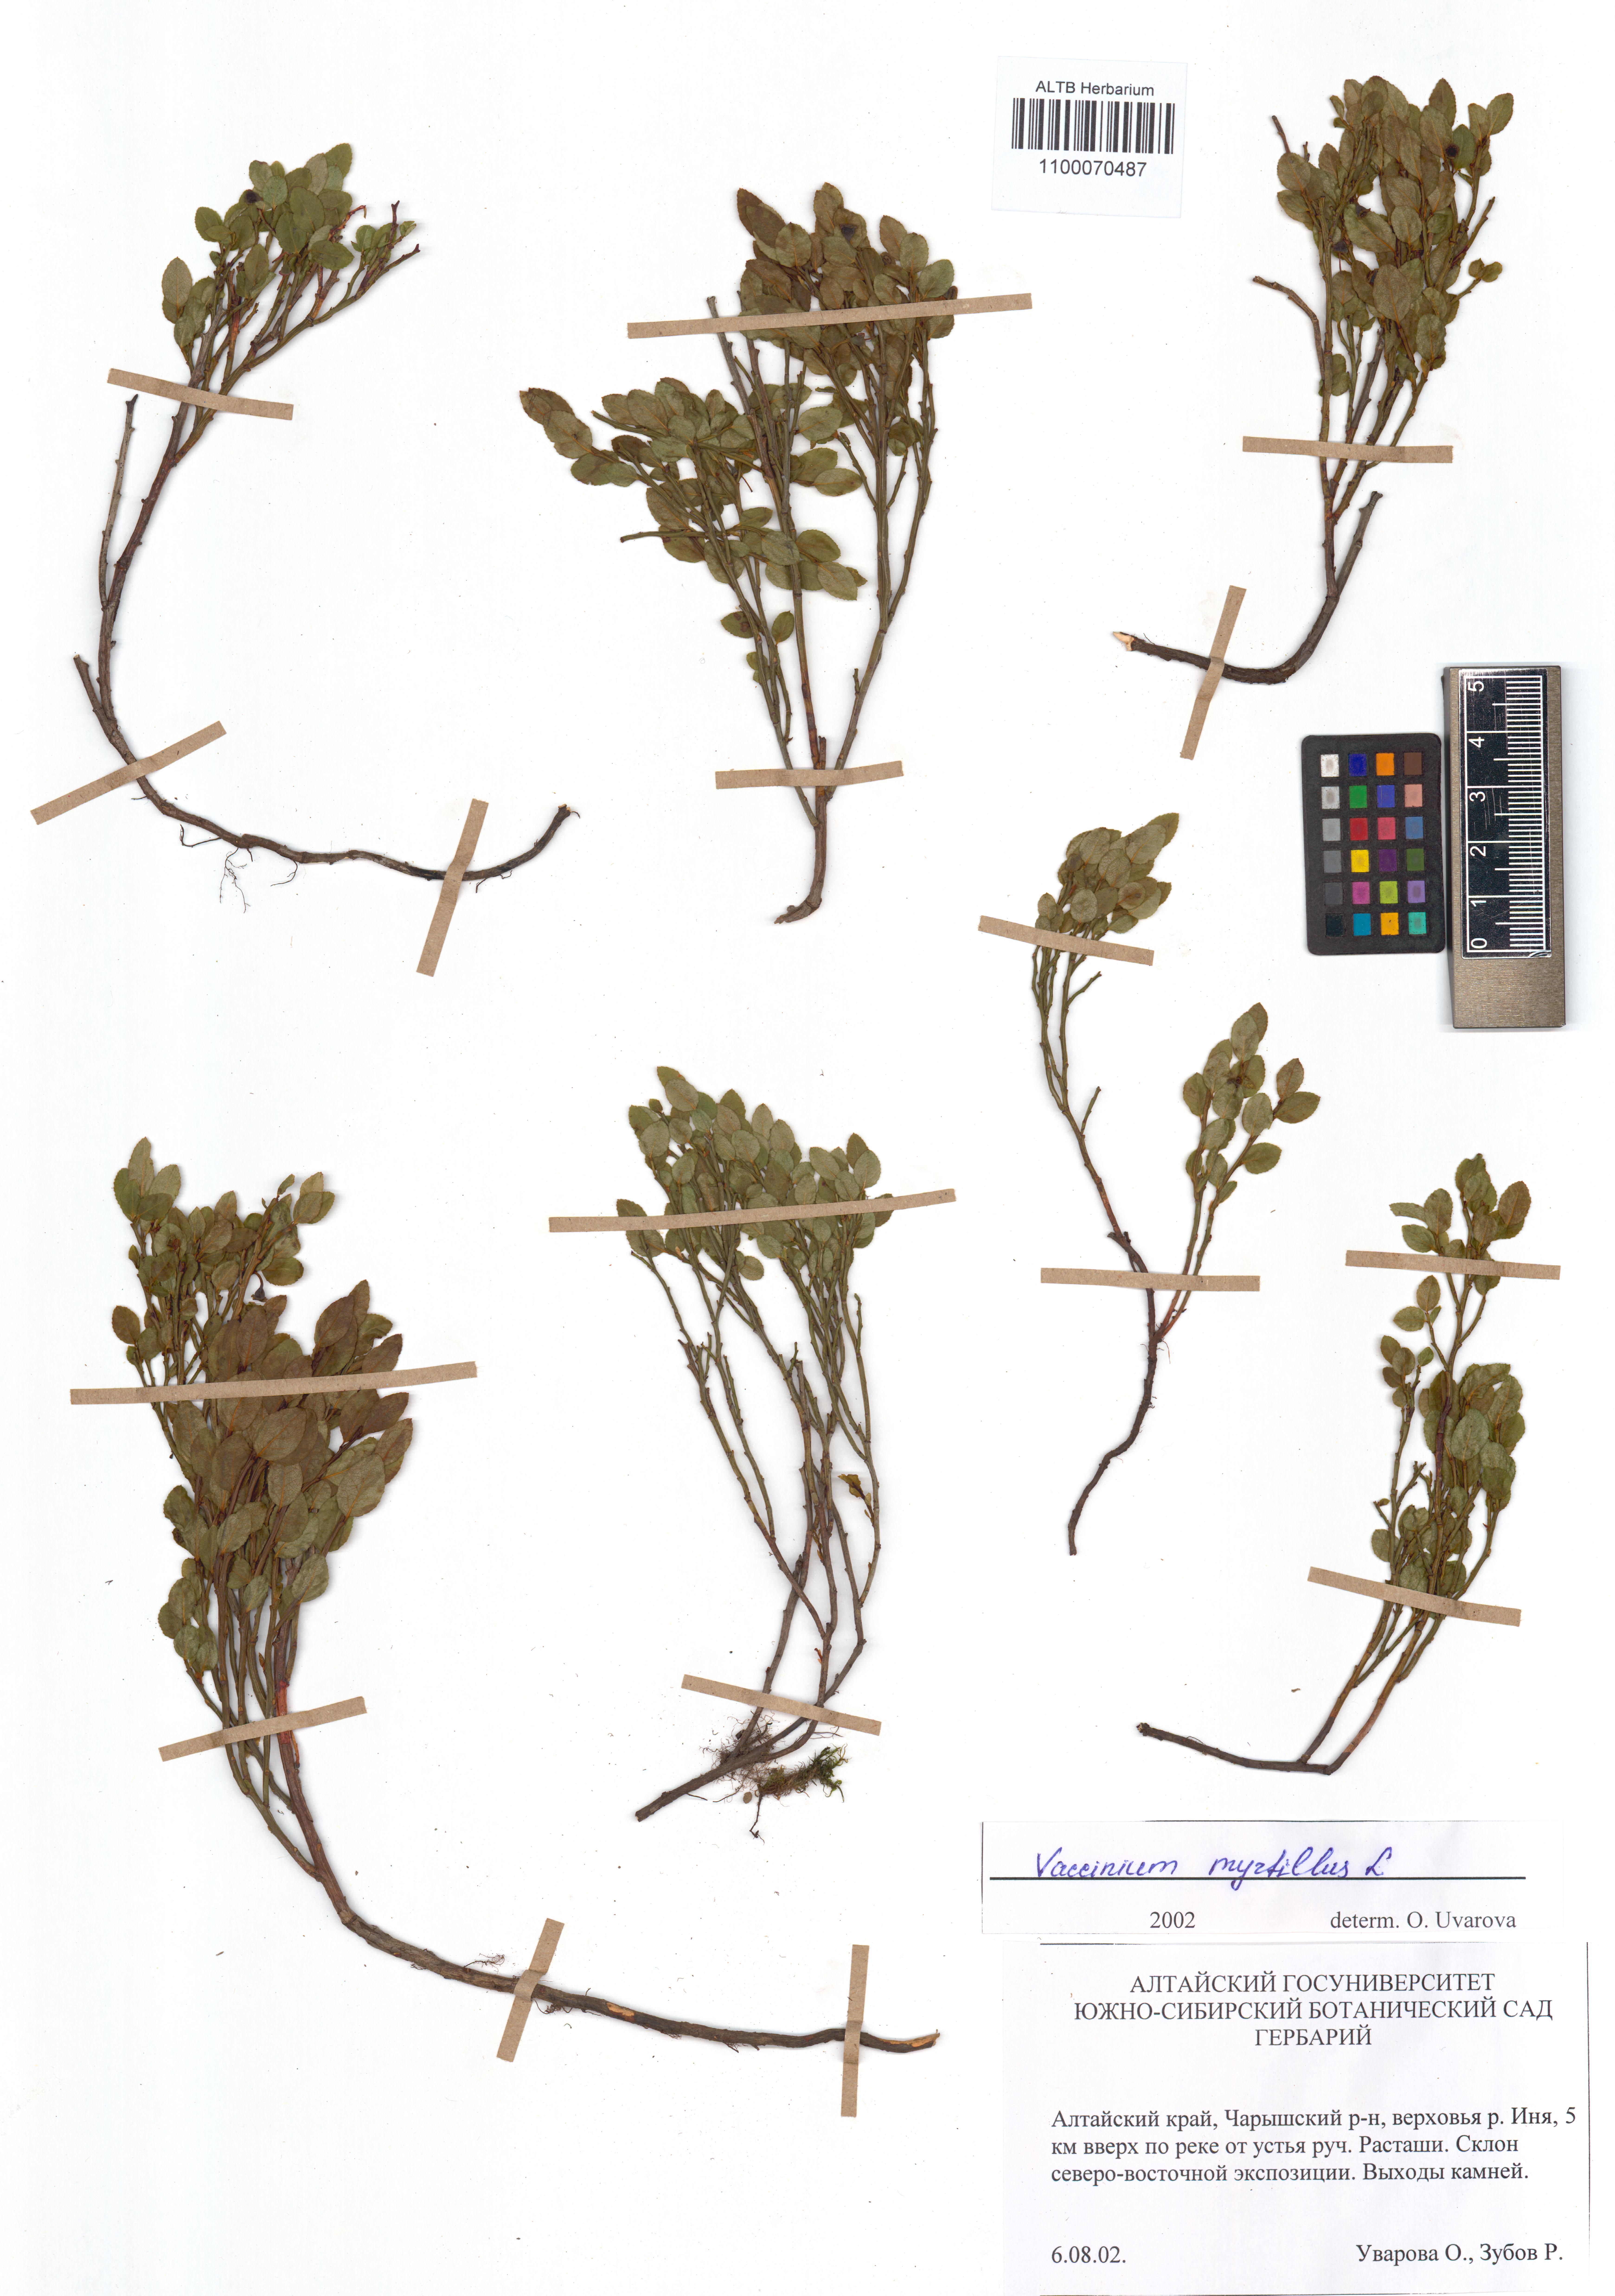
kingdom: Plantae
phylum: Tracheophyta
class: Magnoliopsida
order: Ericales
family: Ericaceae
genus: Vaccinium
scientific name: Vaccinium myrtillus
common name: Bilberry
